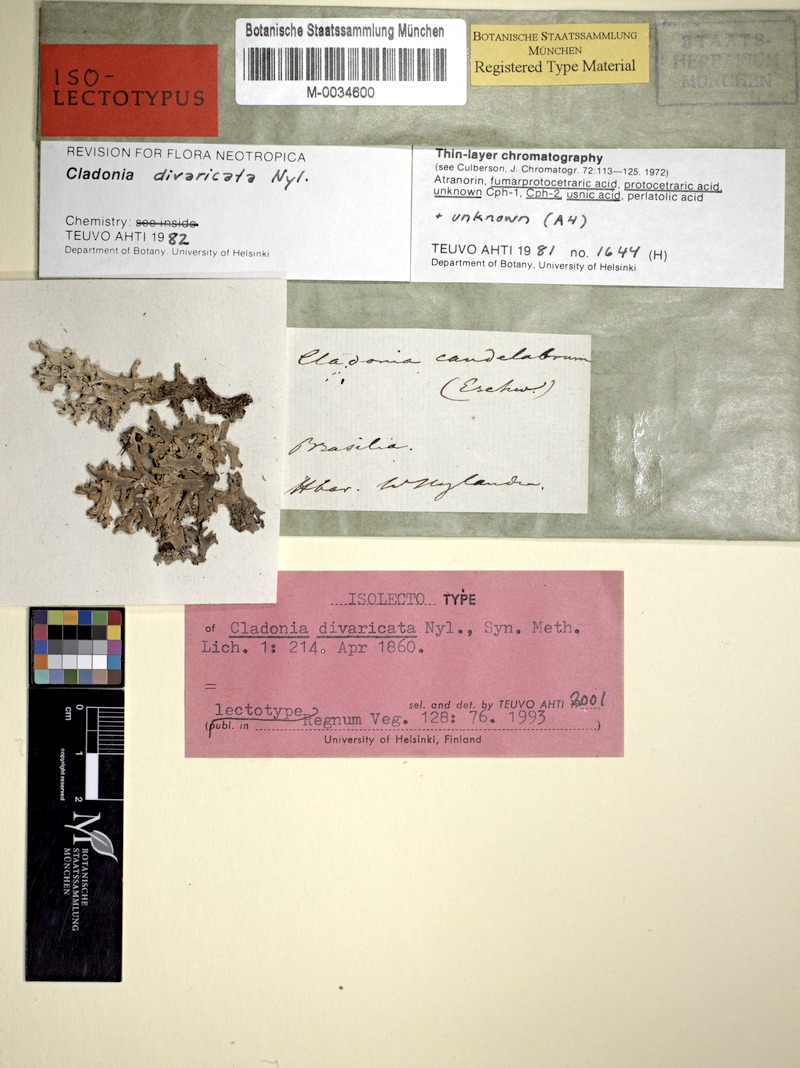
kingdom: Fungi
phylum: Ascomycota
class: Lecanoromycetes
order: Lecanorales
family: Cladoniaceae
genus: Cladonia
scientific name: Cladonia divaricata
